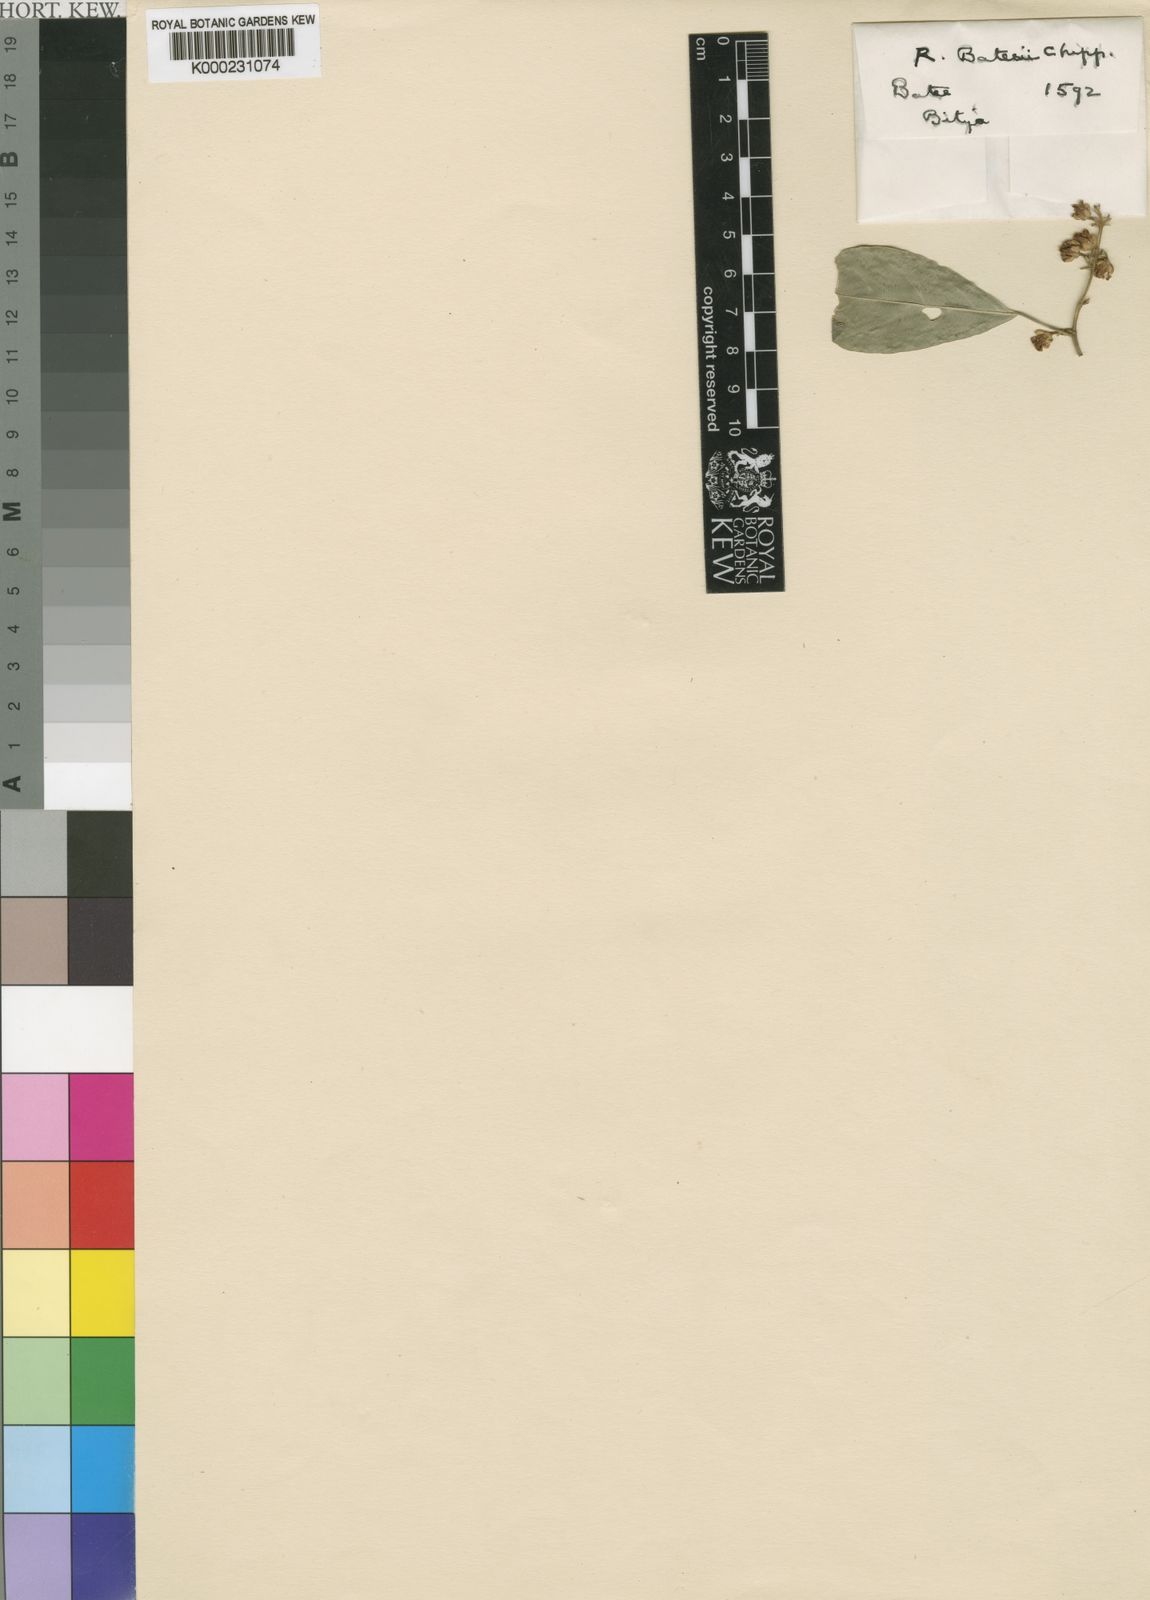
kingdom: Plantae
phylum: Tracheophyta
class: Magnoliopsida
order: Malpighiales
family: Violaceae
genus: Rinorea
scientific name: Rinorea batesii
